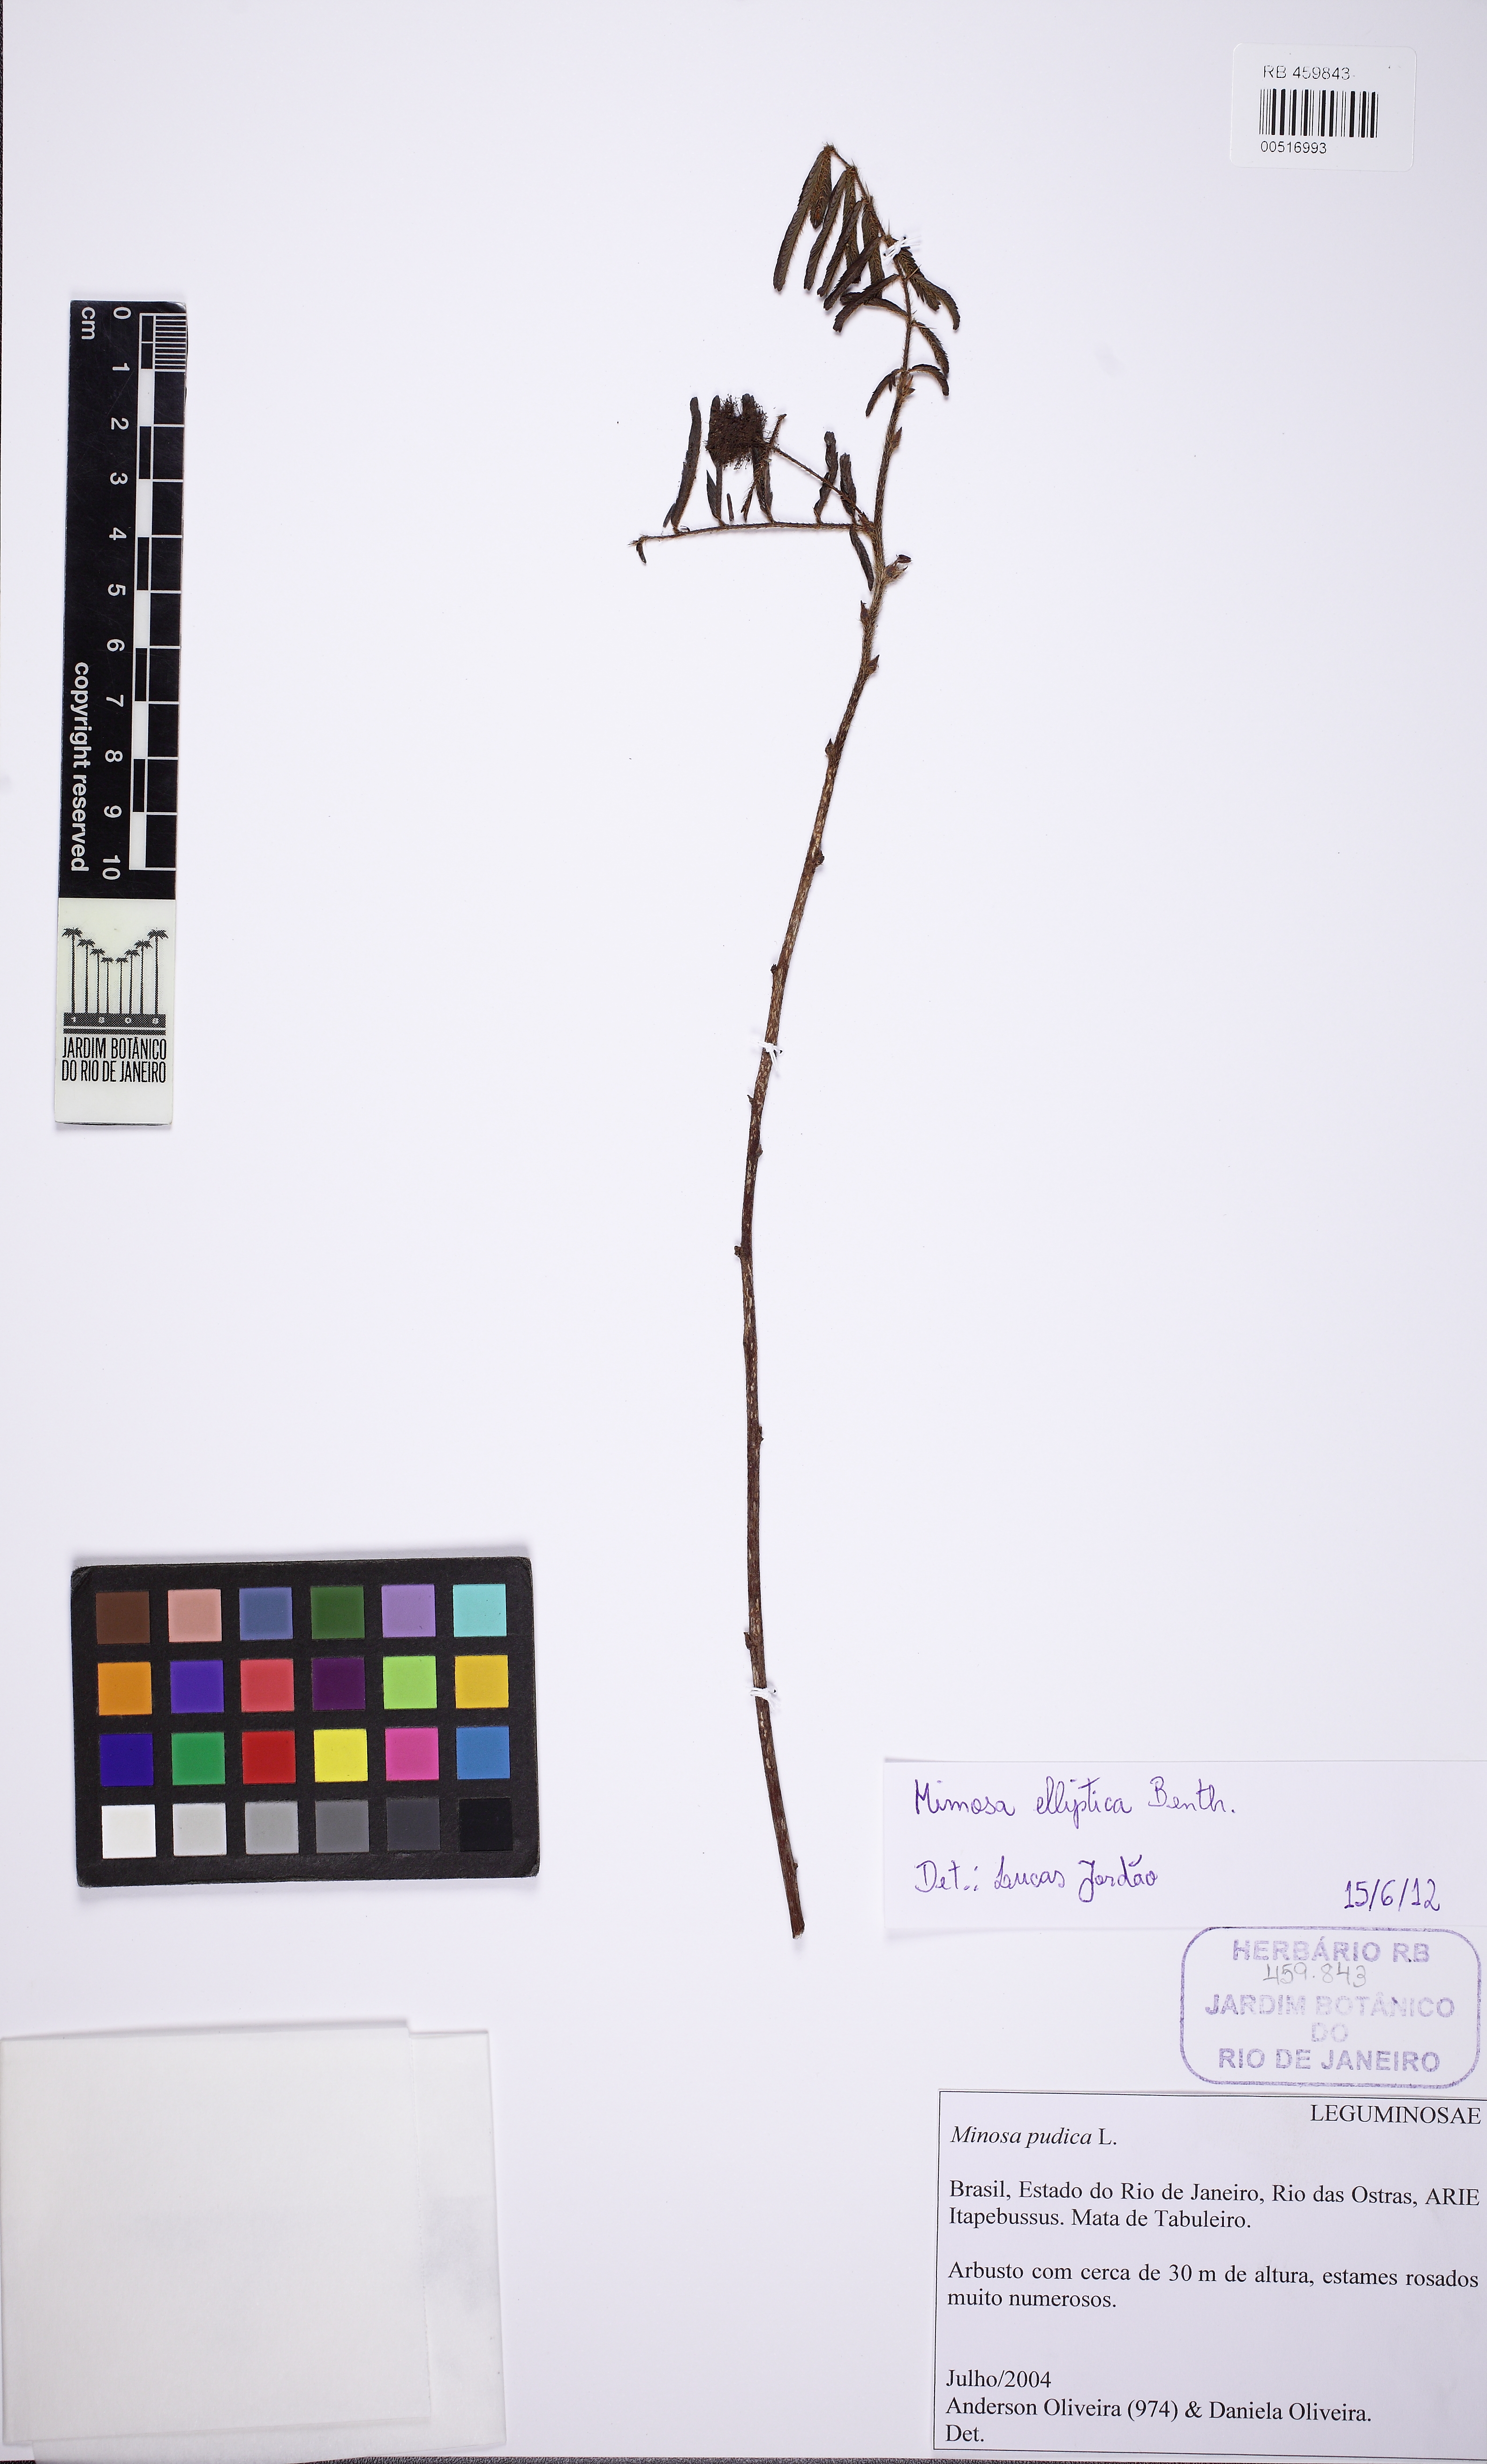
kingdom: Plantae
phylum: Tracheophyta
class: Magnoliopsida
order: Fabales
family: Fabaceae
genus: Mimosa
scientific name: Mimosa elliptica
